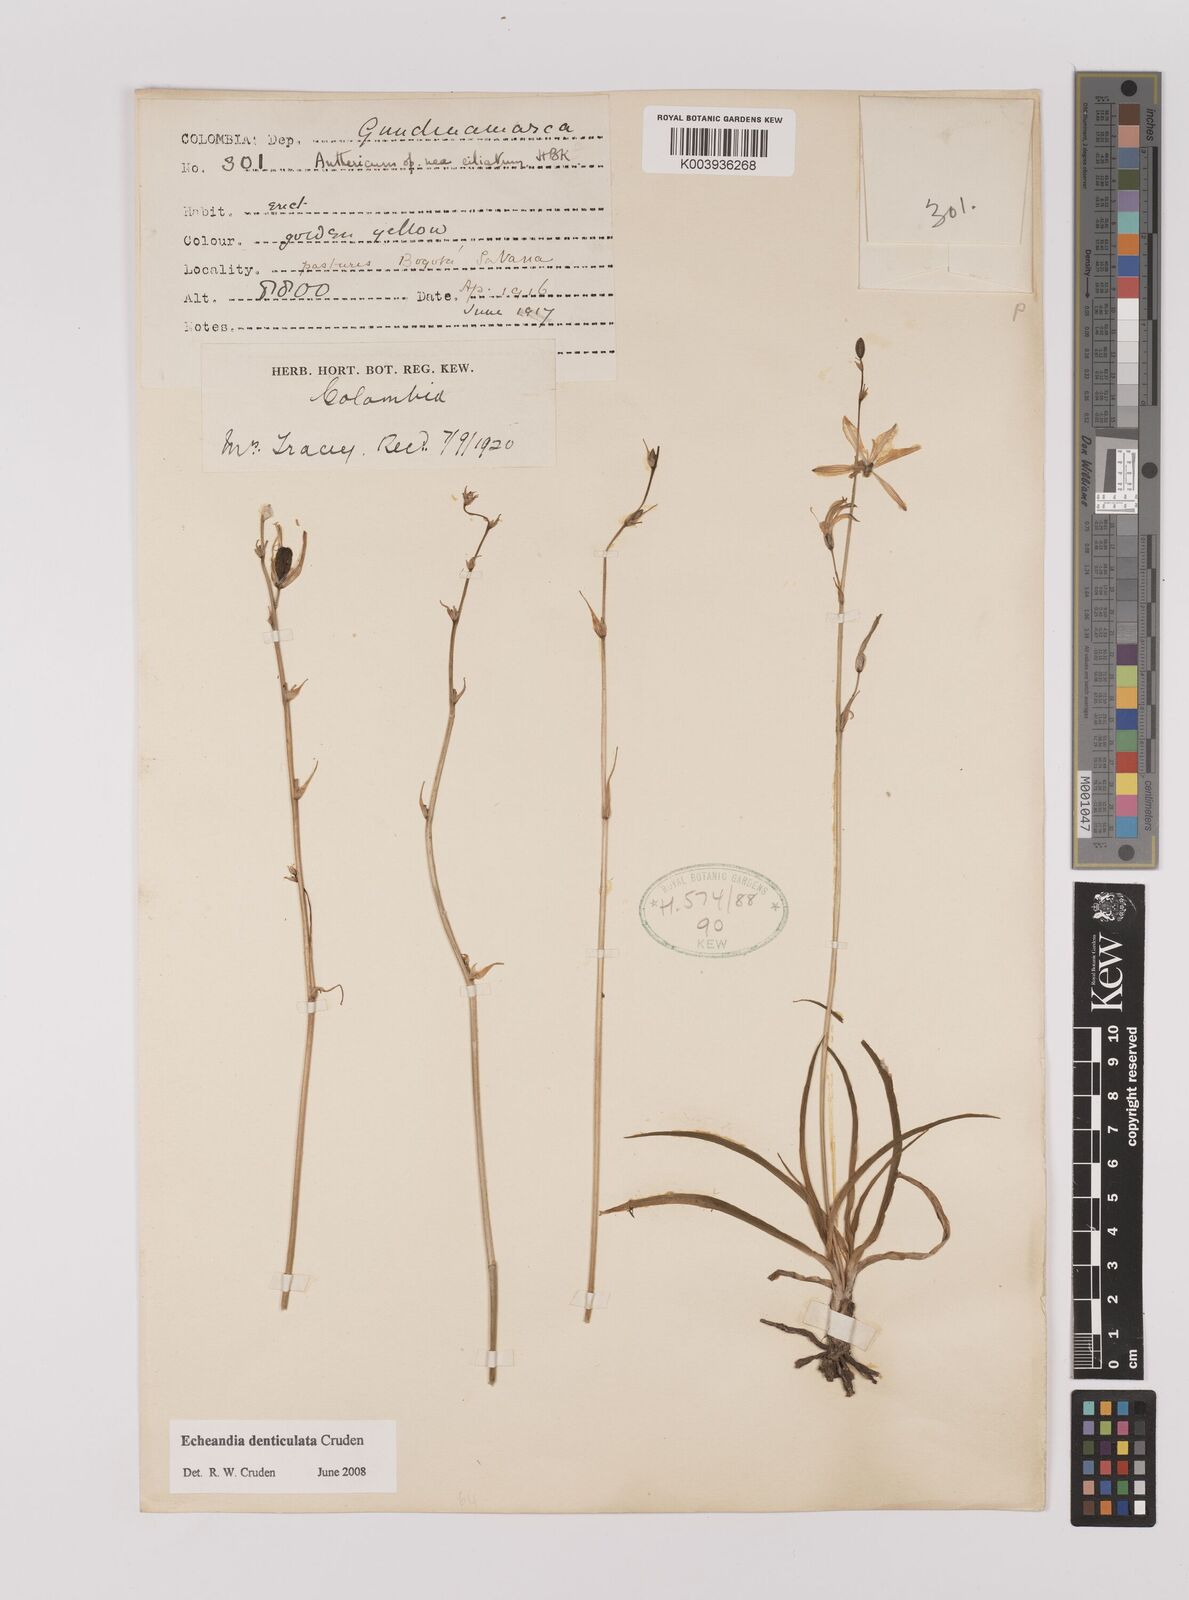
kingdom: Plantae
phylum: Tracheophyta
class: Liliopsida
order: Asparagales
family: Asparagaceae
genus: Echeandia
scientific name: Echeandia flavescens
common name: Amberlily
